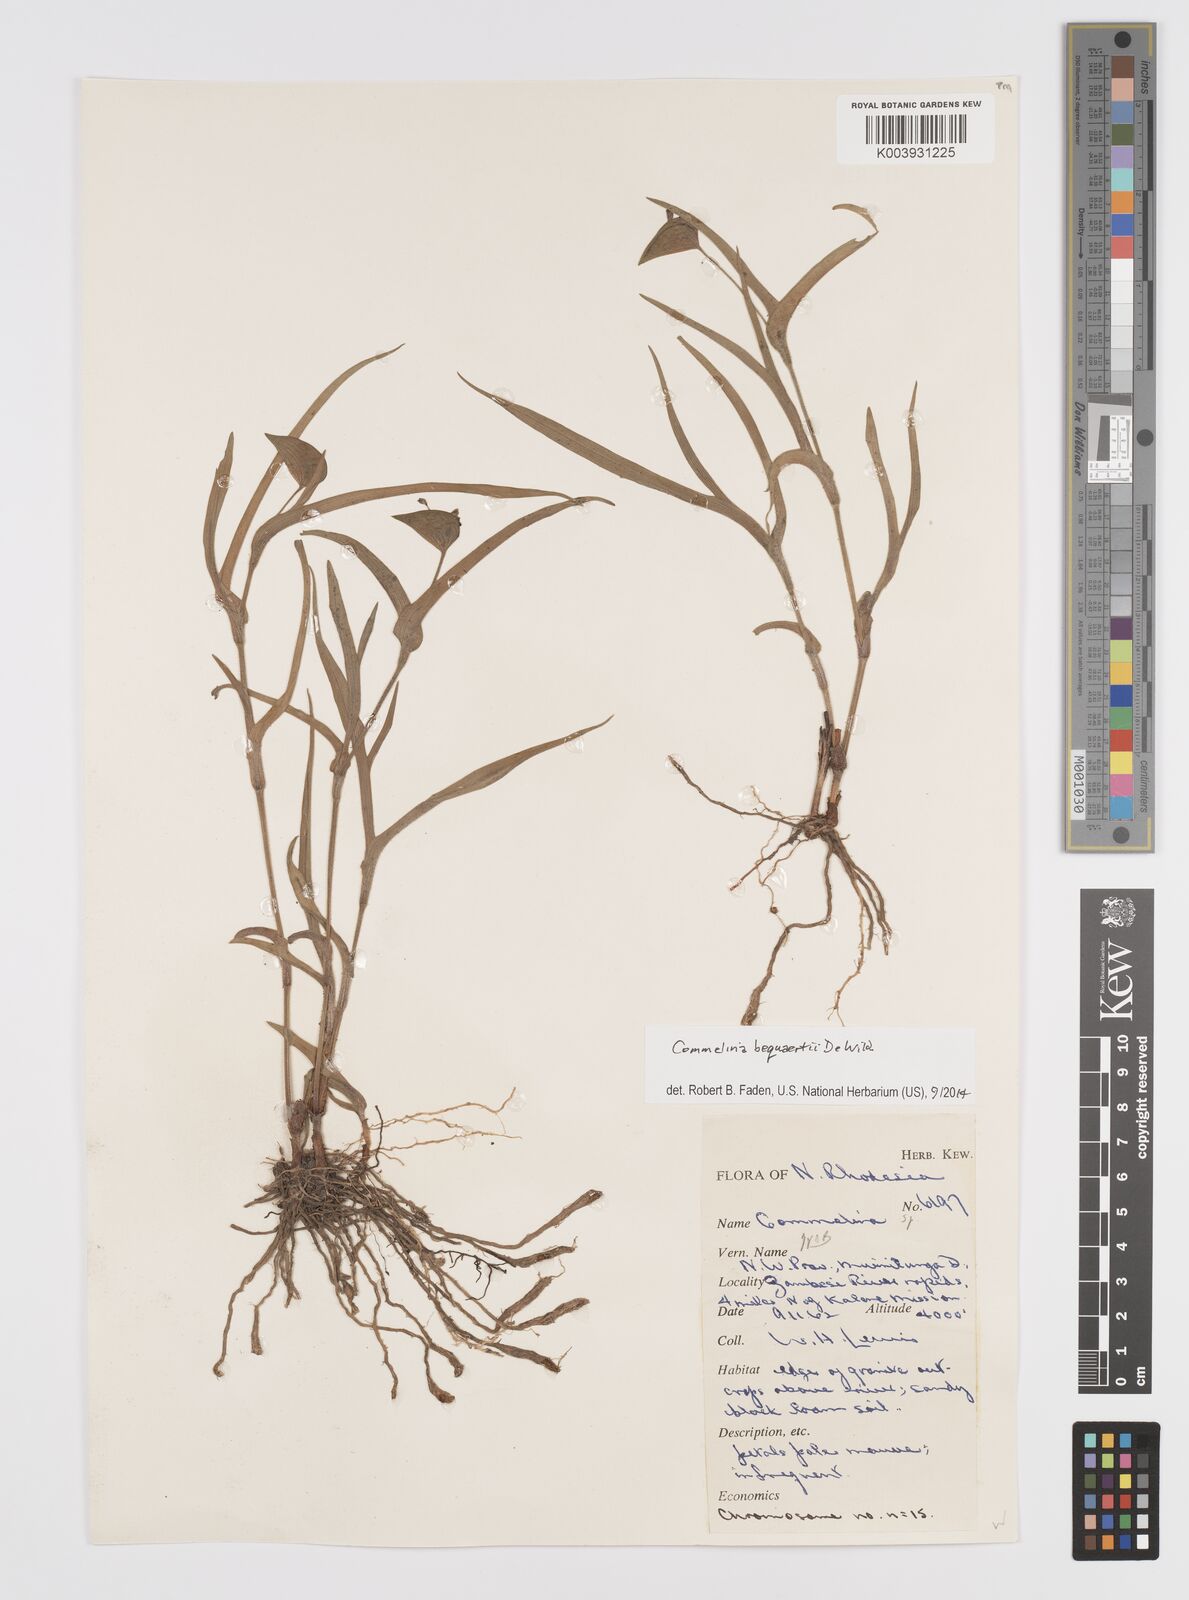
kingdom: Plantae
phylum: Tracheophyta
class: Liliopsida
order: Commelinales
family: Commelinaceae
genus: Commelina
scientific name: Commelina bequaertii
